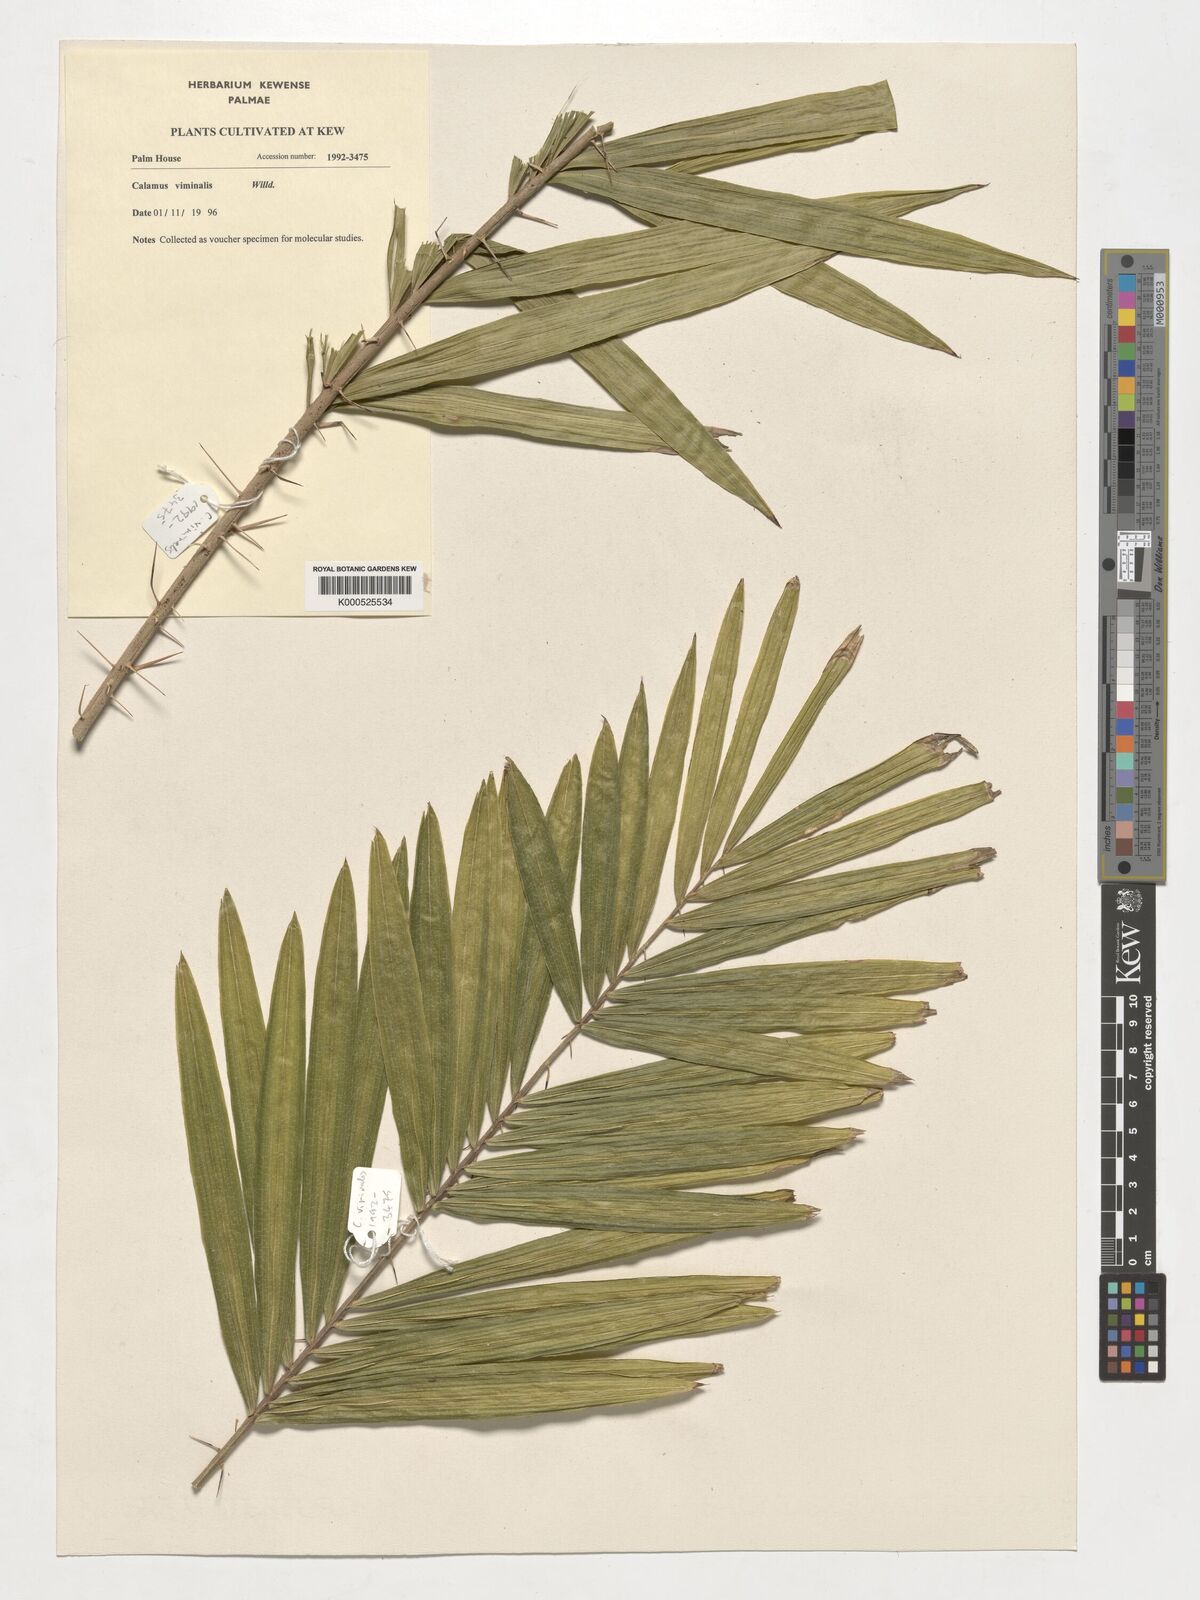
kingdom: Plantae
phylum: Tracheophyta
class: Liliopsida
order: Arecales
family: Arecaceae
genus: Calamus
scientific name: Calamus viminalis
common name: Osier-like rattan palm
